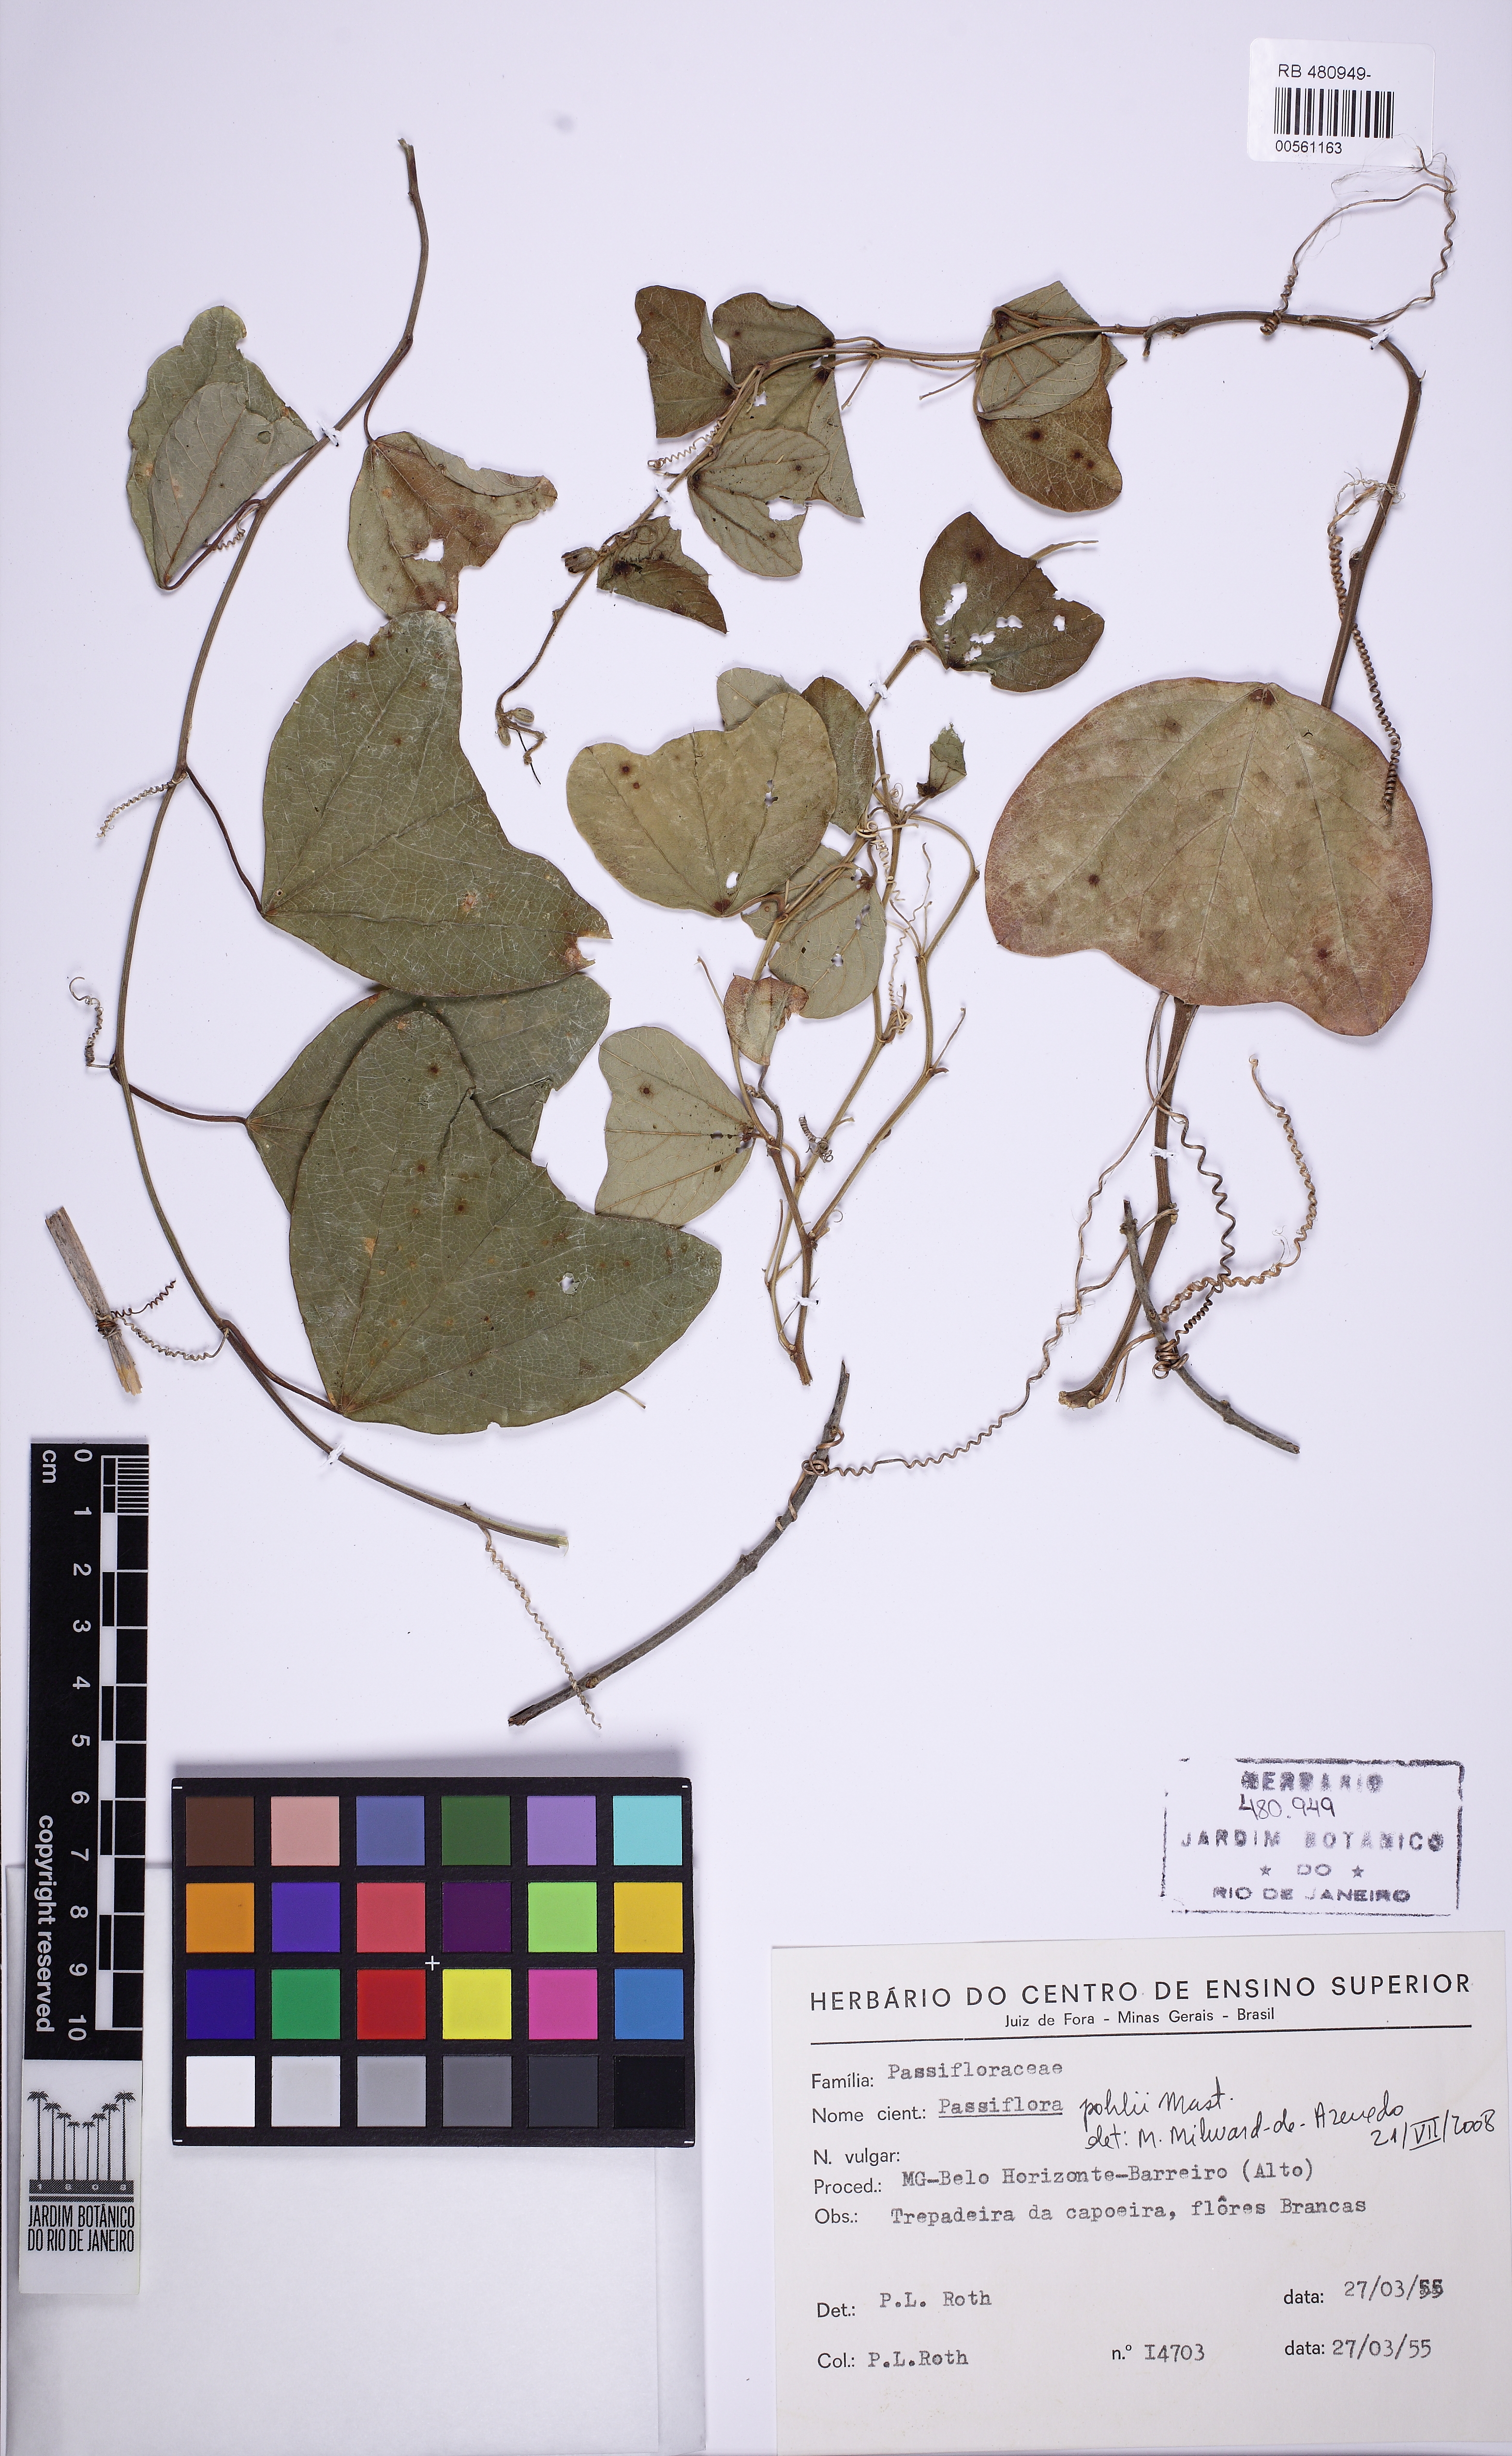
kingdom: Plantae
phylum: Tracheophyta
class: Magnoliopsida
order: Malpighiales
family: Passifloraceae
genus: Passiflora
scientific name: Passiflora pohlii
